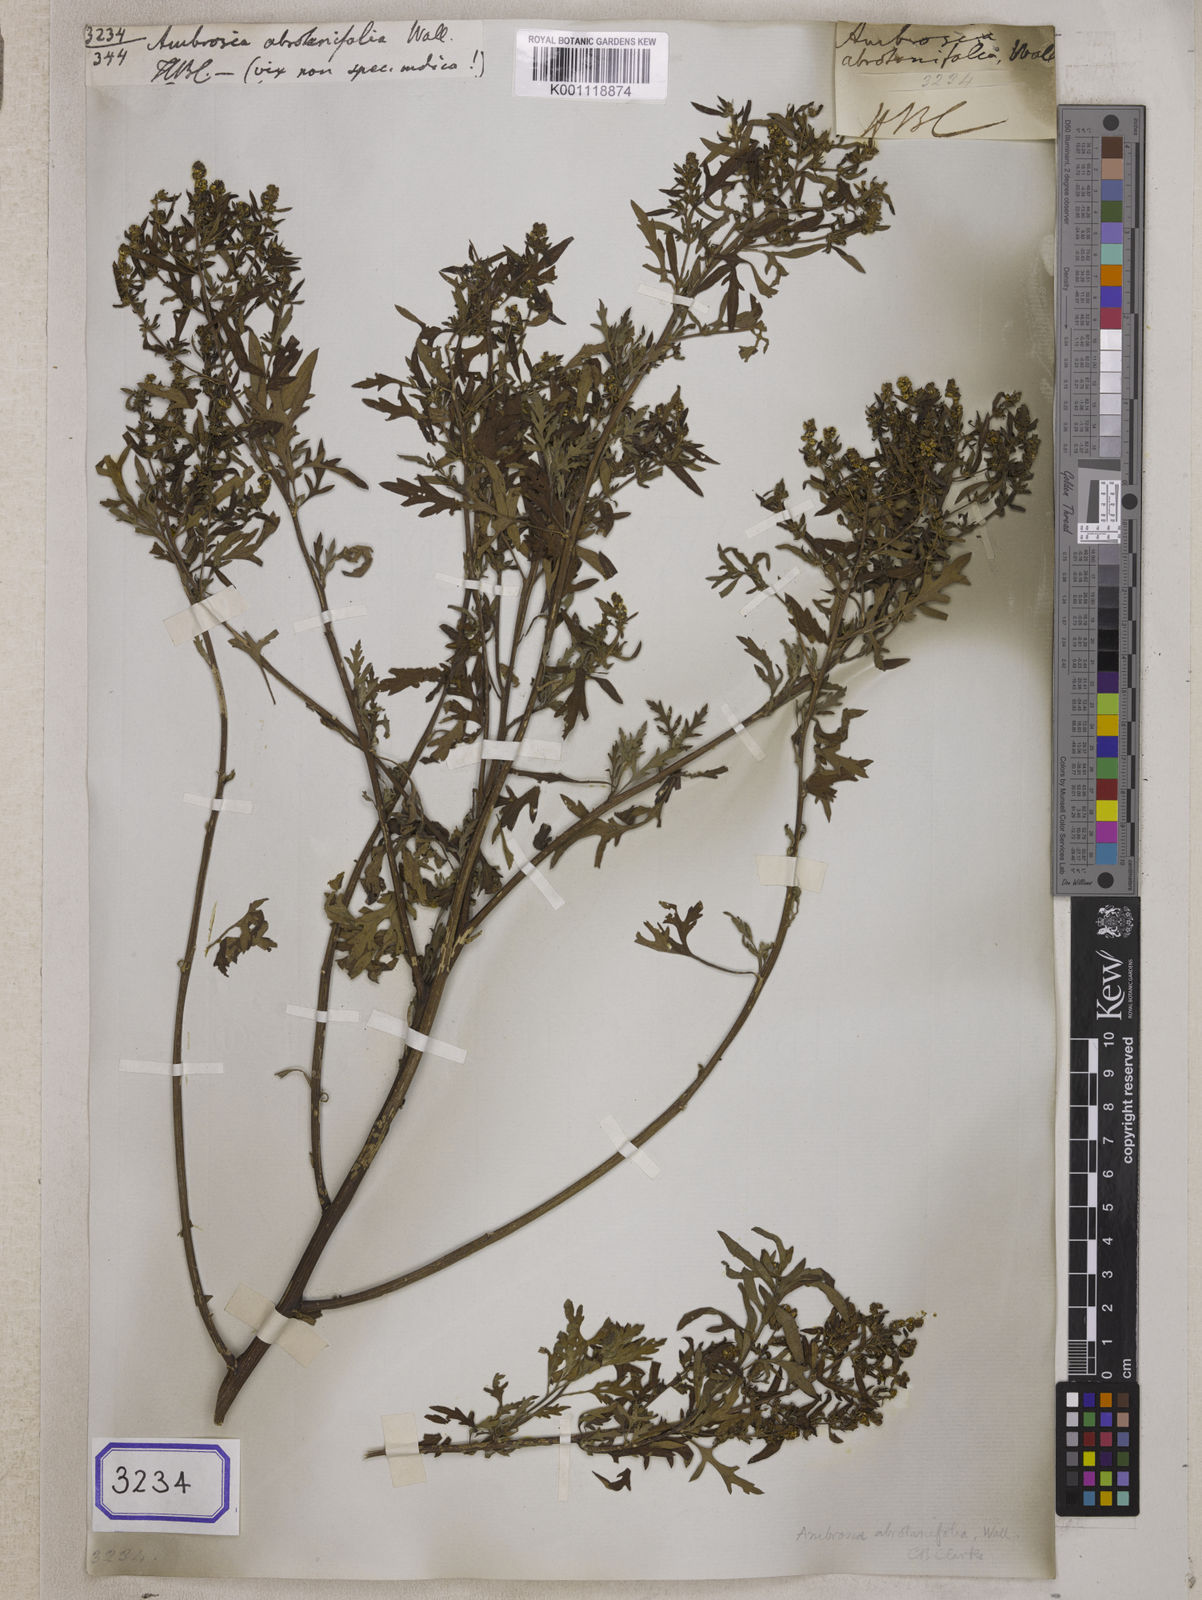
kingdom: Plantae
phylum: Tracheophyta
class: Magnoliopsida
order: Asterales
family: Asteraceae
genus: Ambrosia
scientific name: Ambrosia polystachya
